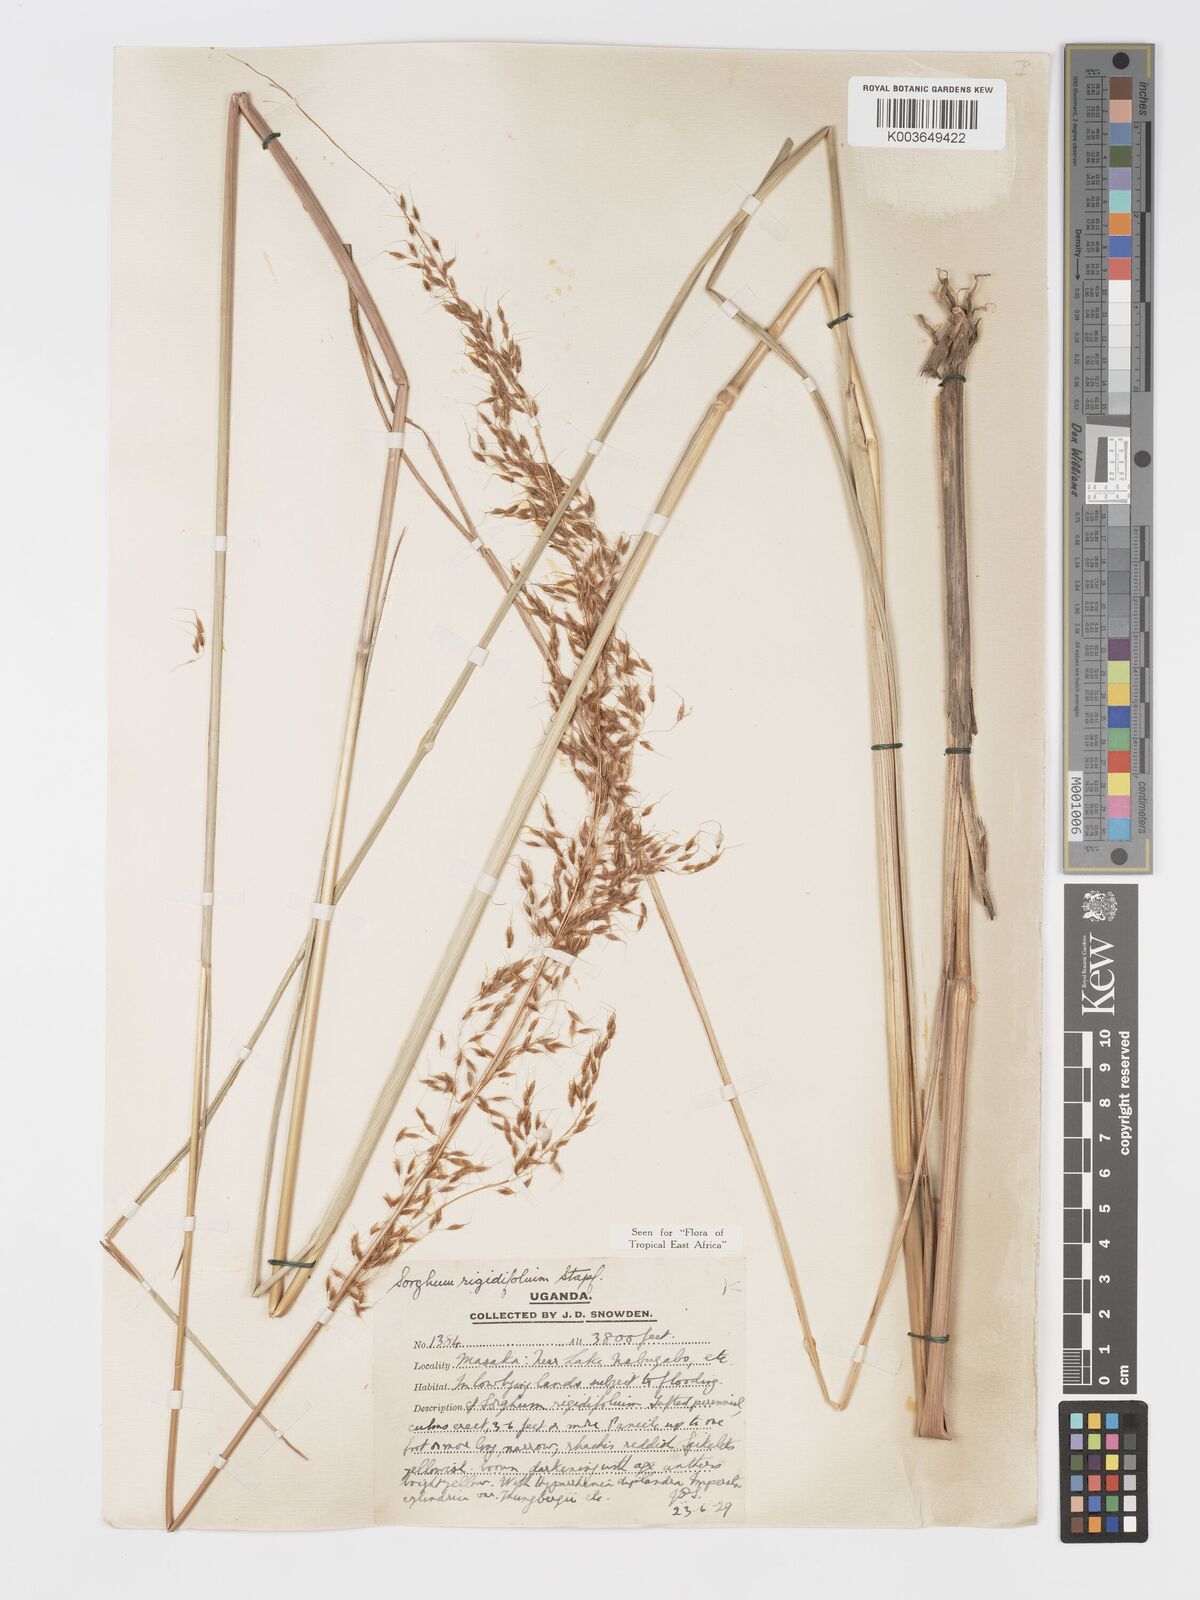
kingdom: Plantae
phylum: Tracheophyta
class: Liliopsida
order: Poales
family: Poaceae
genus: Sorghastrum
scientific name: Sorghastrum stipoides
